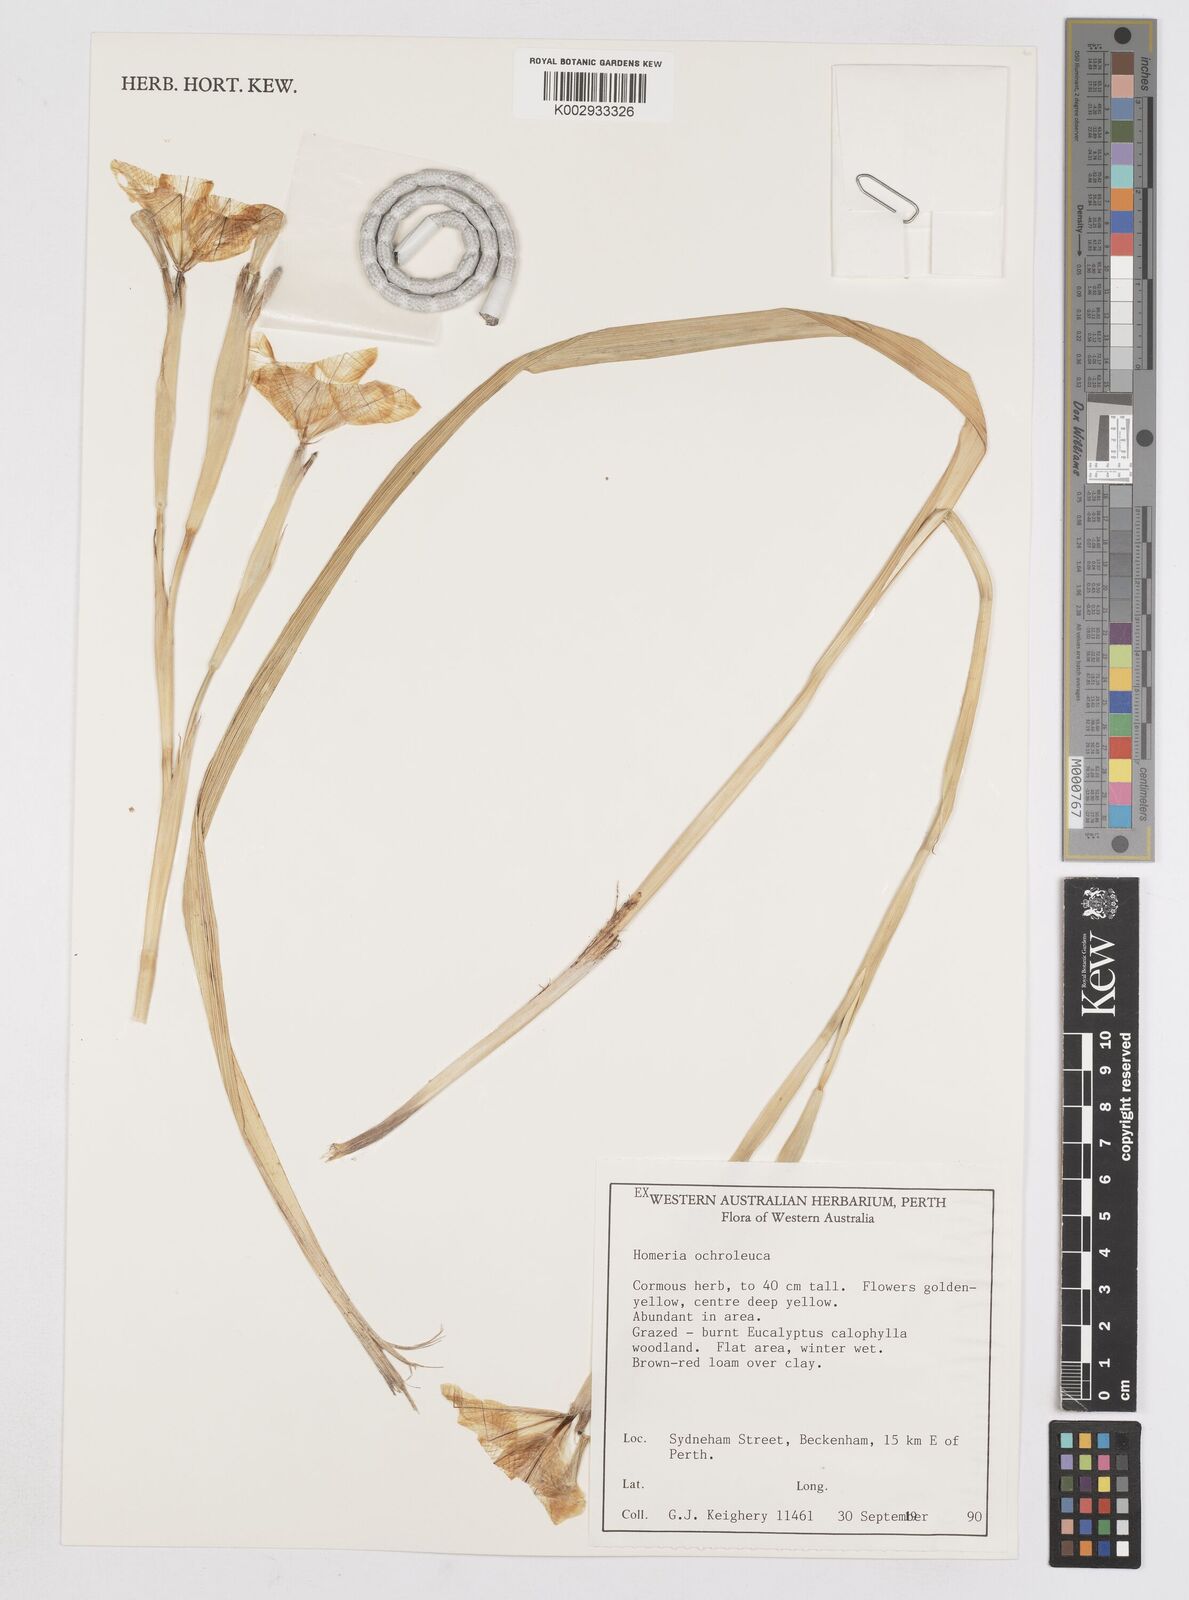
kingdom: Plantae
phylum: Tracheophyta
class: Liliopsida
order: Asparagales
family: Iridaceae
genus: Moraea
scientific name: Moraea ochroleuca
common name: Red tulp
